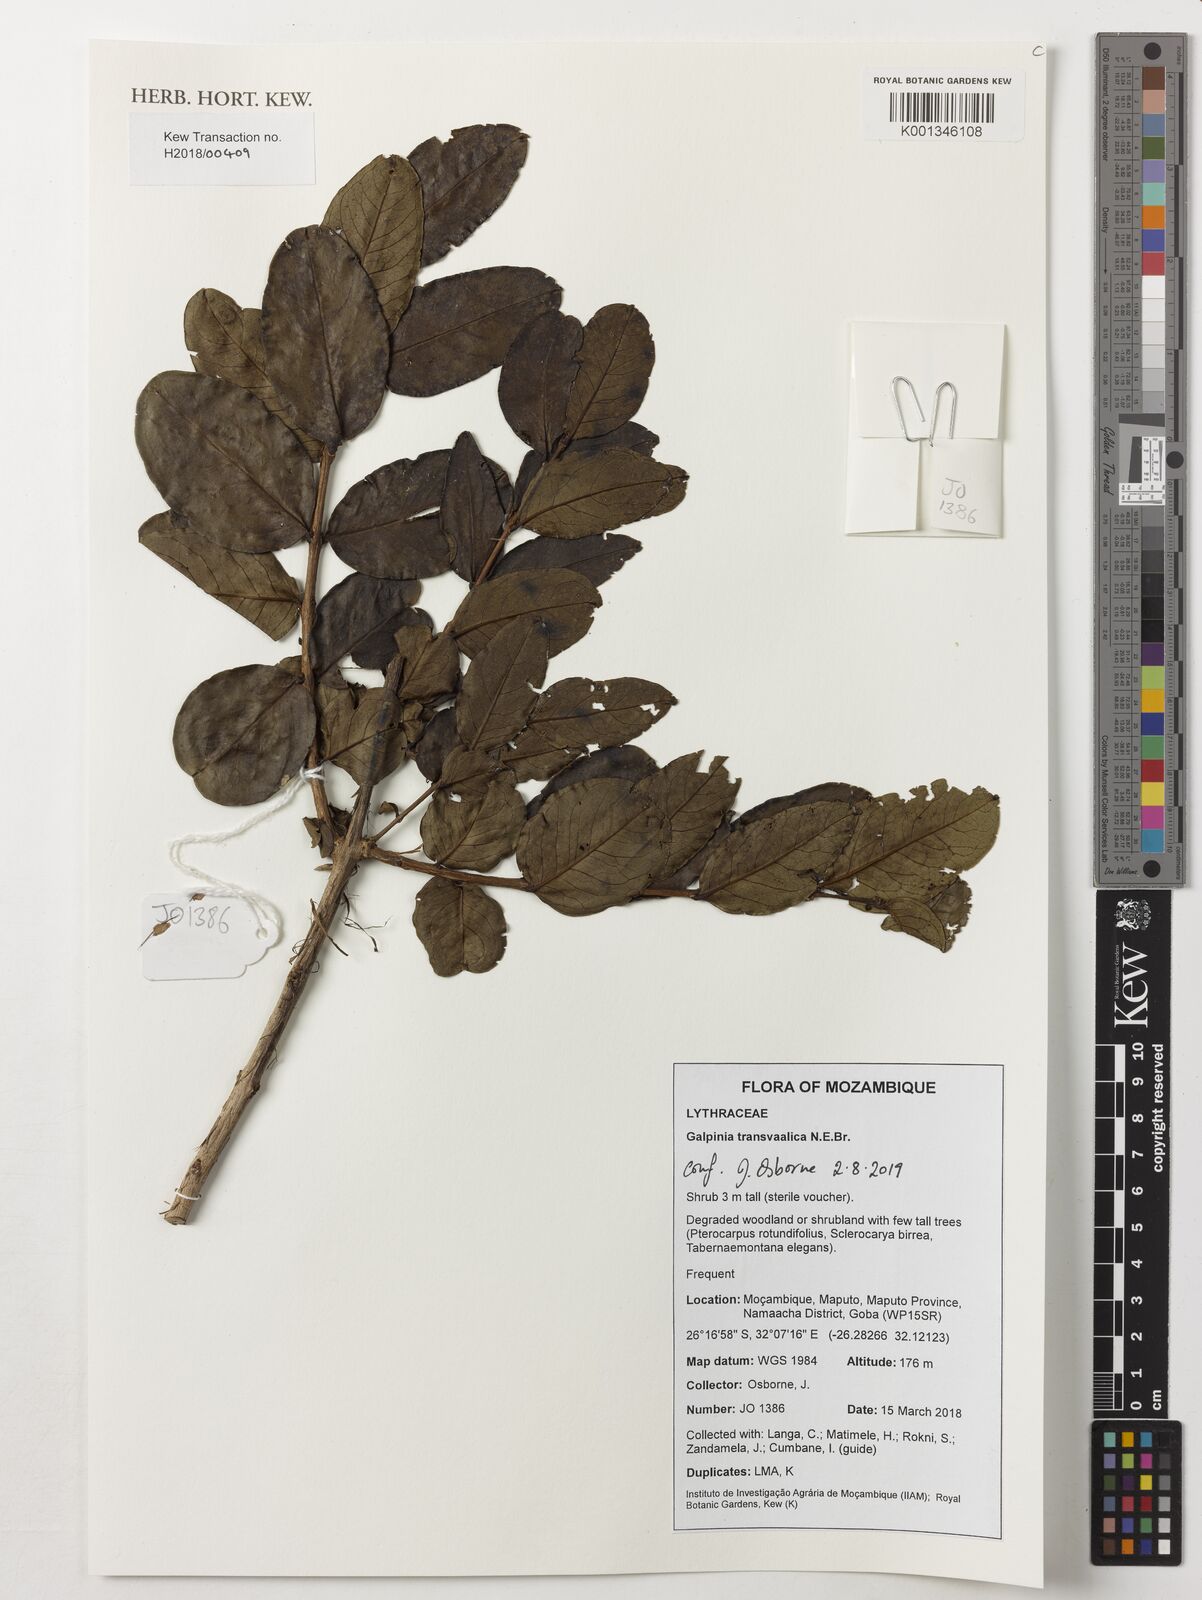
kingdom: Plantae
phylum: Tracheophyta
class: Magnoliopsida
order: Myrtales
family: Lythraceae
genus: Galpinia
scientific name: Galpinia transvaalica
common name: Wild pride of india
